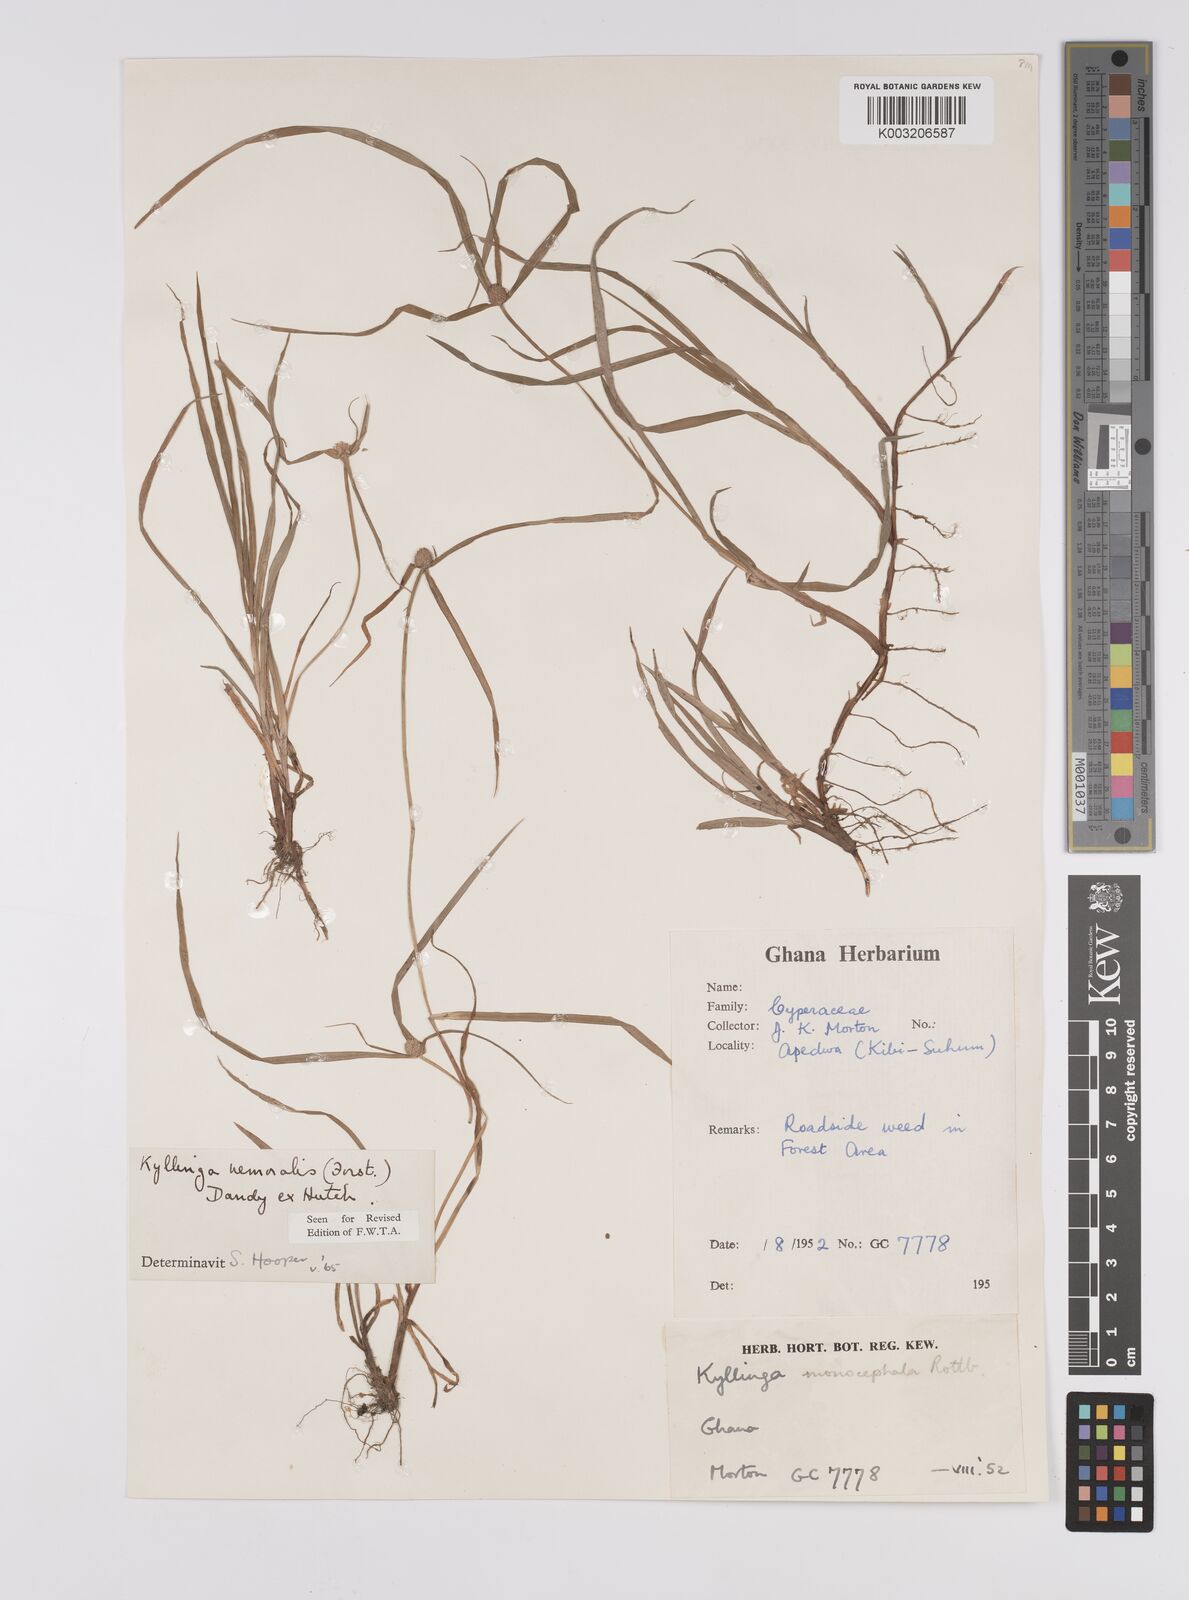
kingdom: Plantae
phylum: Tracheophyta
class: Liliopsida
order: Poales
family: Cyperaceae
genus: Cyperus
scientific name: Cyperus nemoralis
